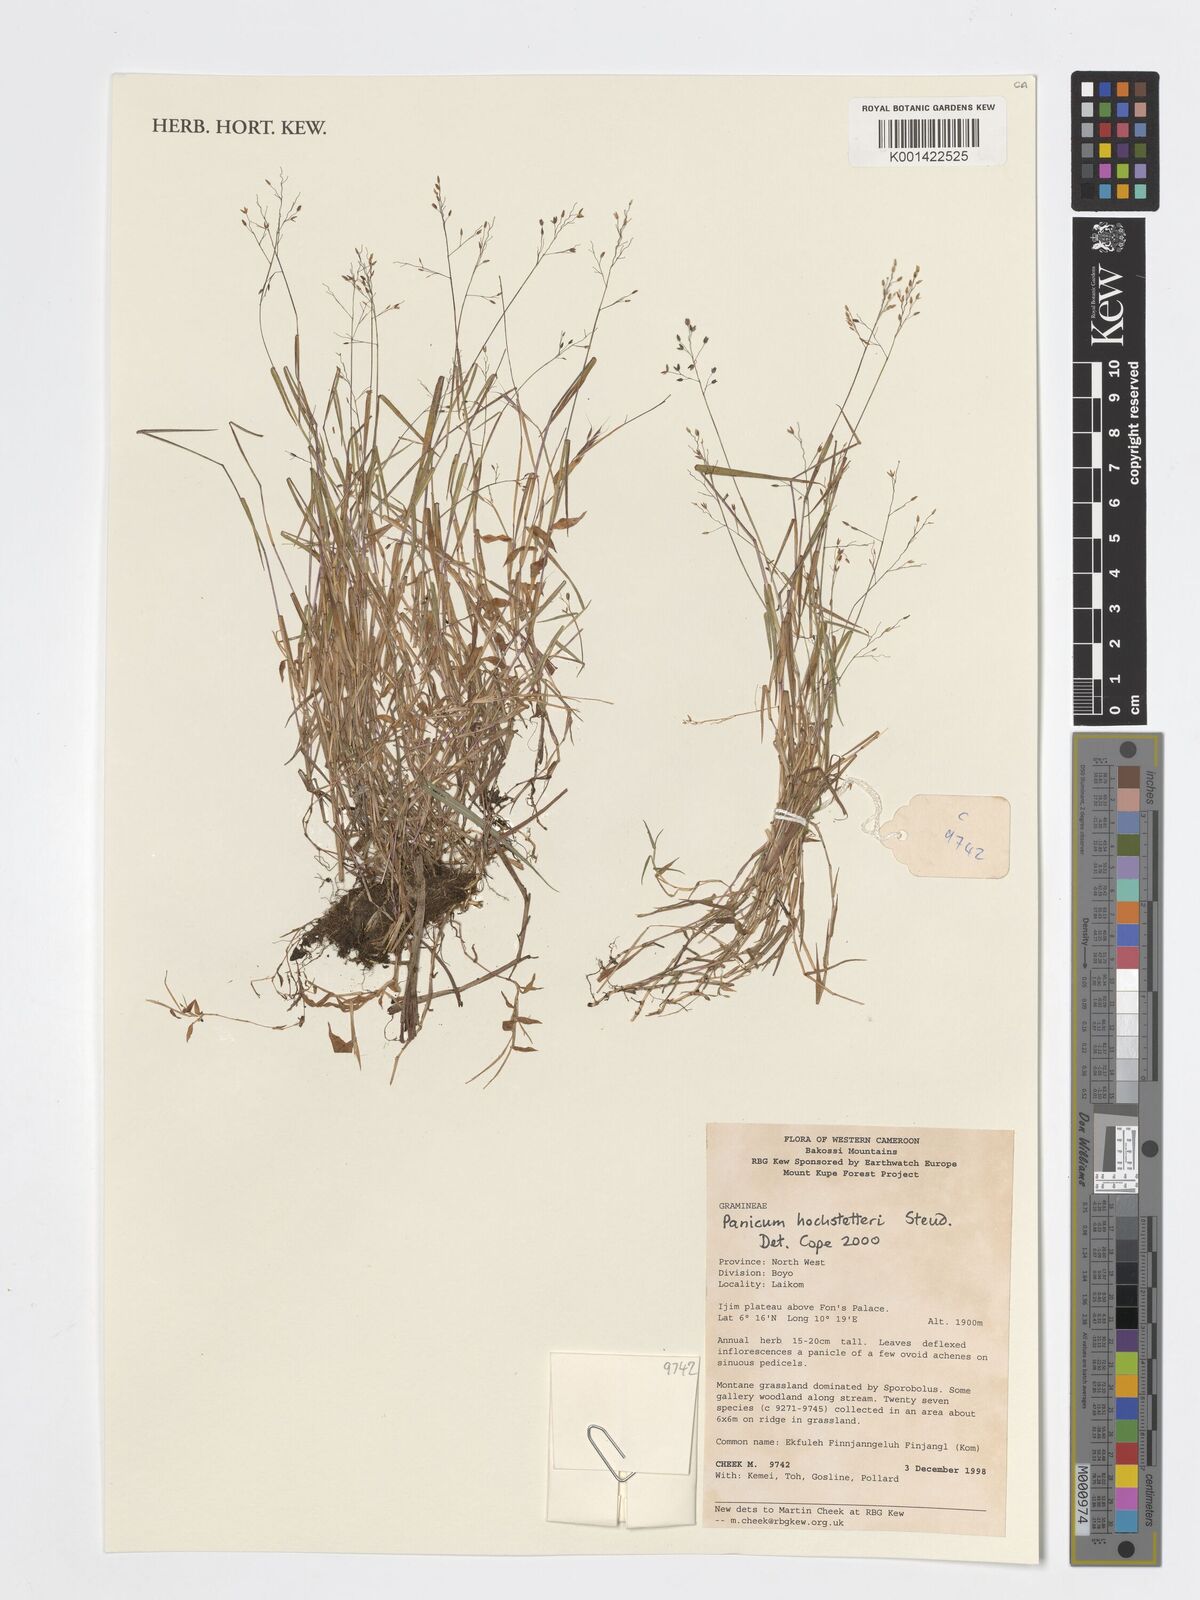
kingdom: Plantae
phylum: Tracheophyta
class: Liliopsida
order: Poales
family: Poaceae
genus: Panicum
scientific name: Panicum hochstetteri
